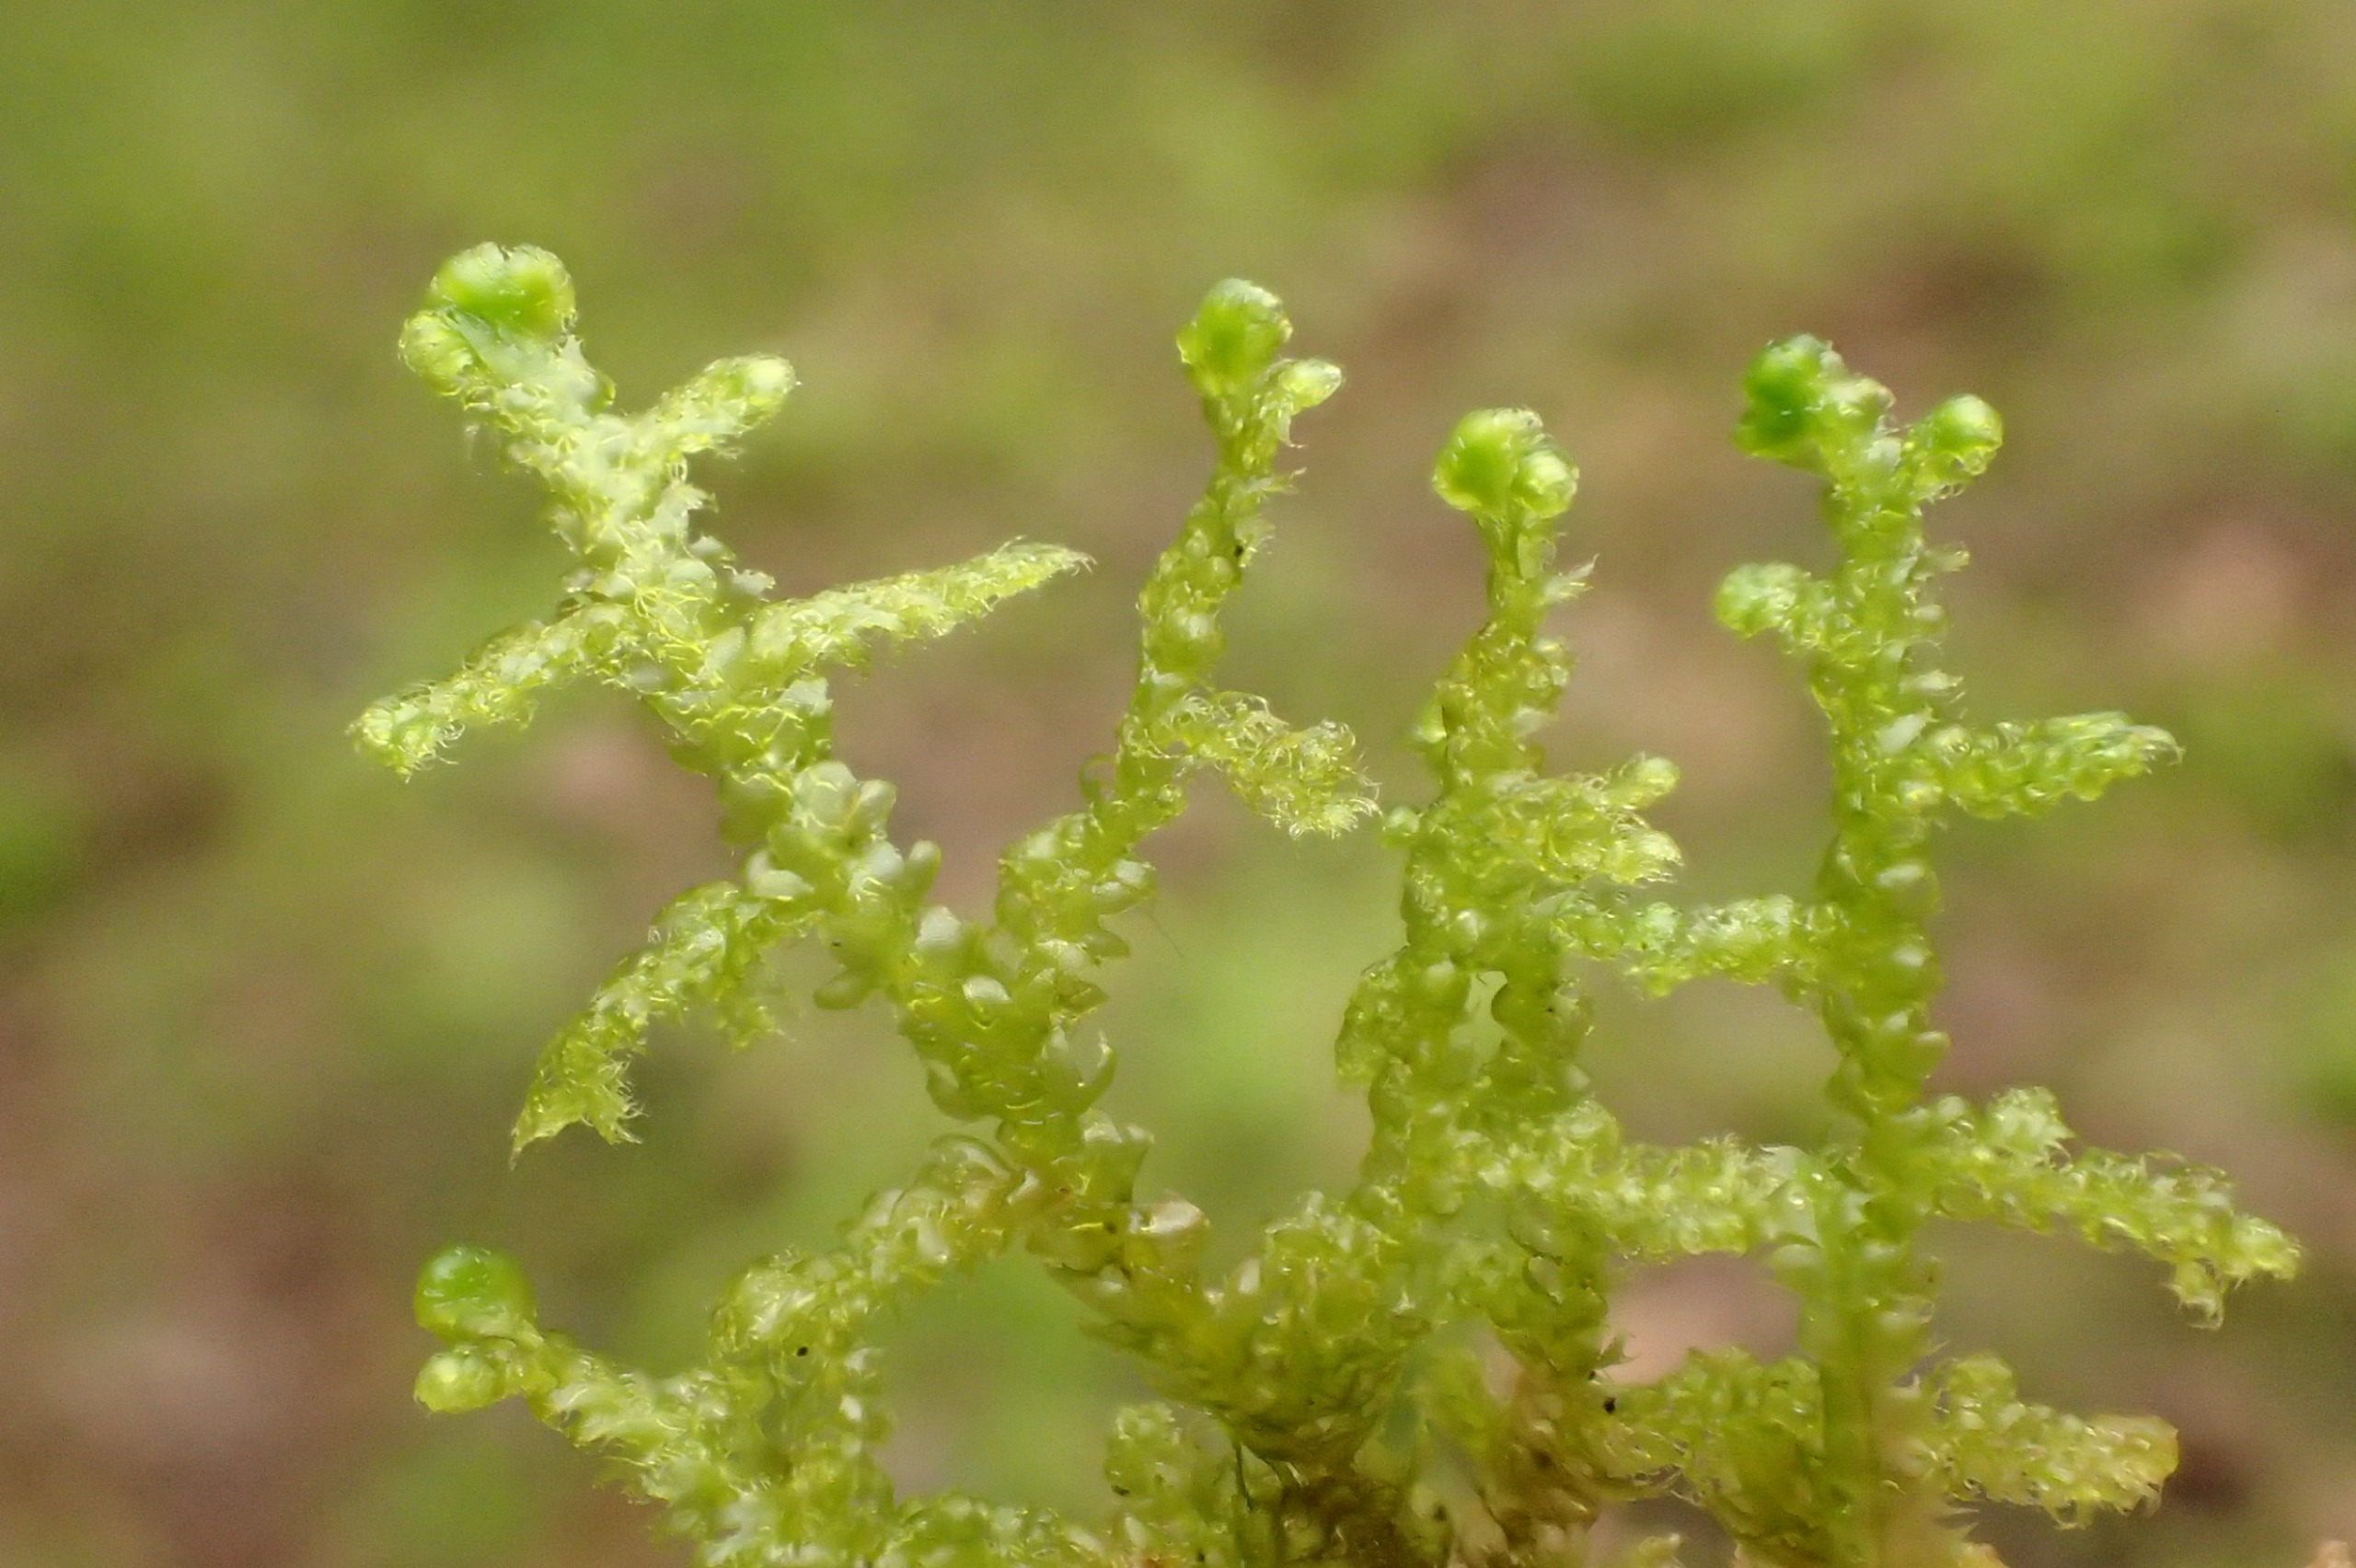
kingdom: Plantae
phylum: Marchantiophyta
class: Jungermanniopsida
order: Ptilidiales
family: Ptilidiaceae
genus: Ptilidium
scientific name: Ptilidium ciliare
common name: Almindelig frynsemos
